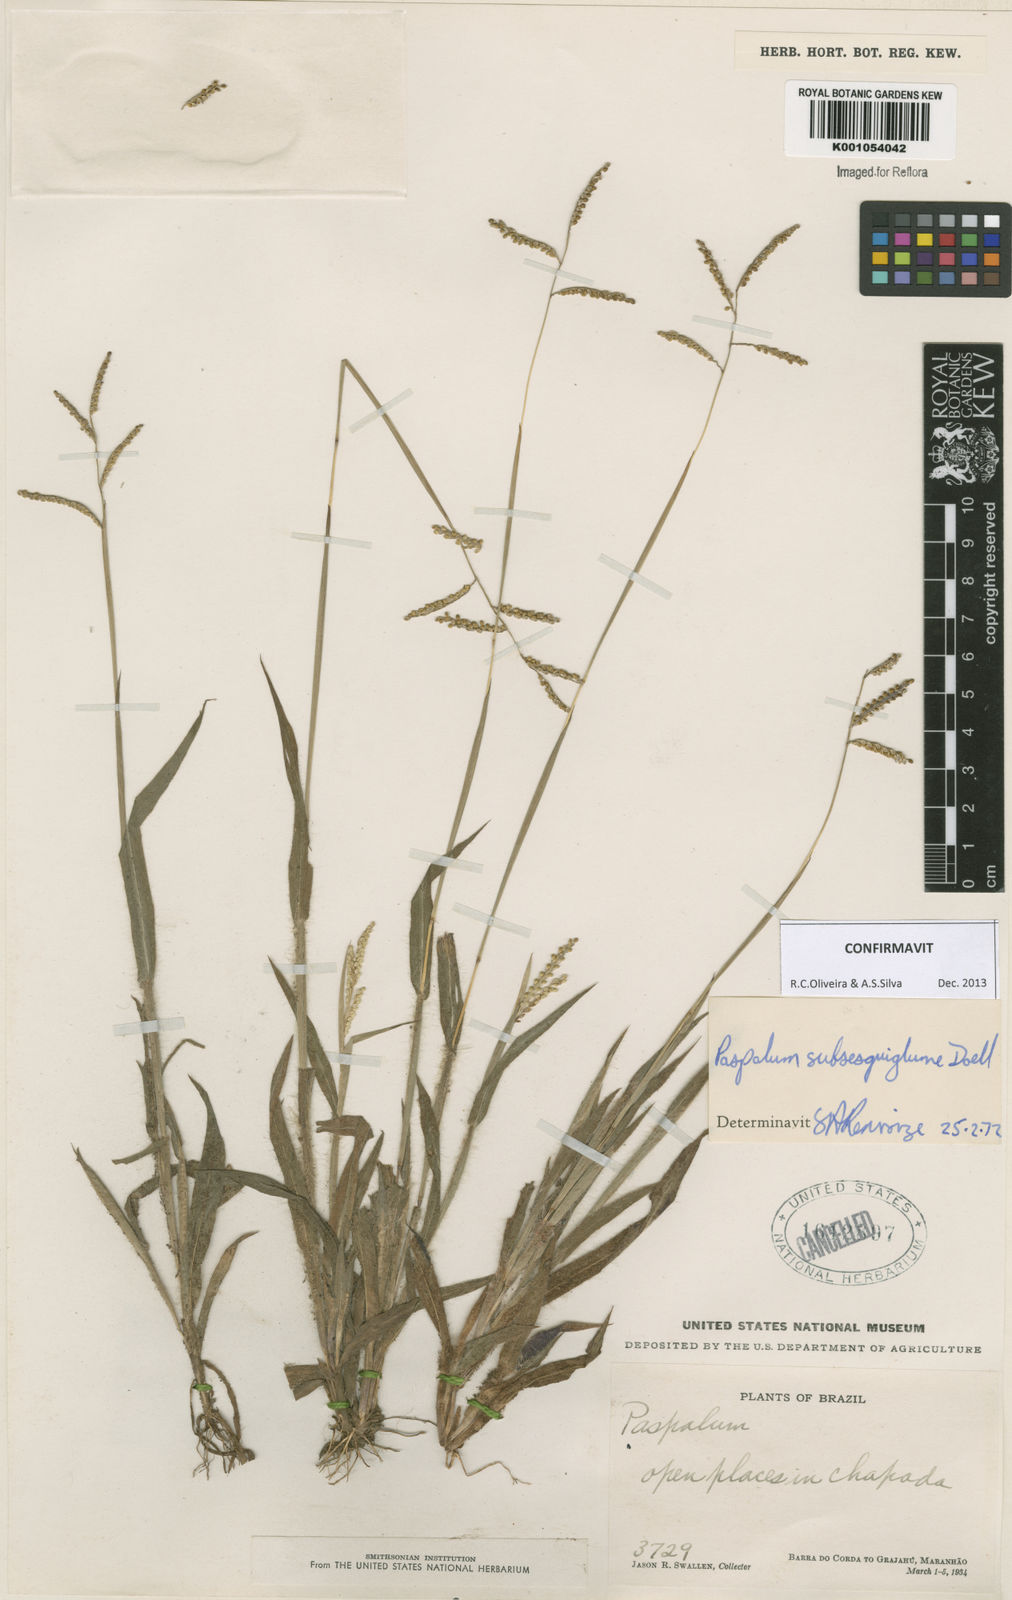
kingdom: Plantae
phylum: Tracheophyta
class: Liliopsida
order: Poales
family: Poaceae
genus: Paspalum
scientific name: Paspalum
